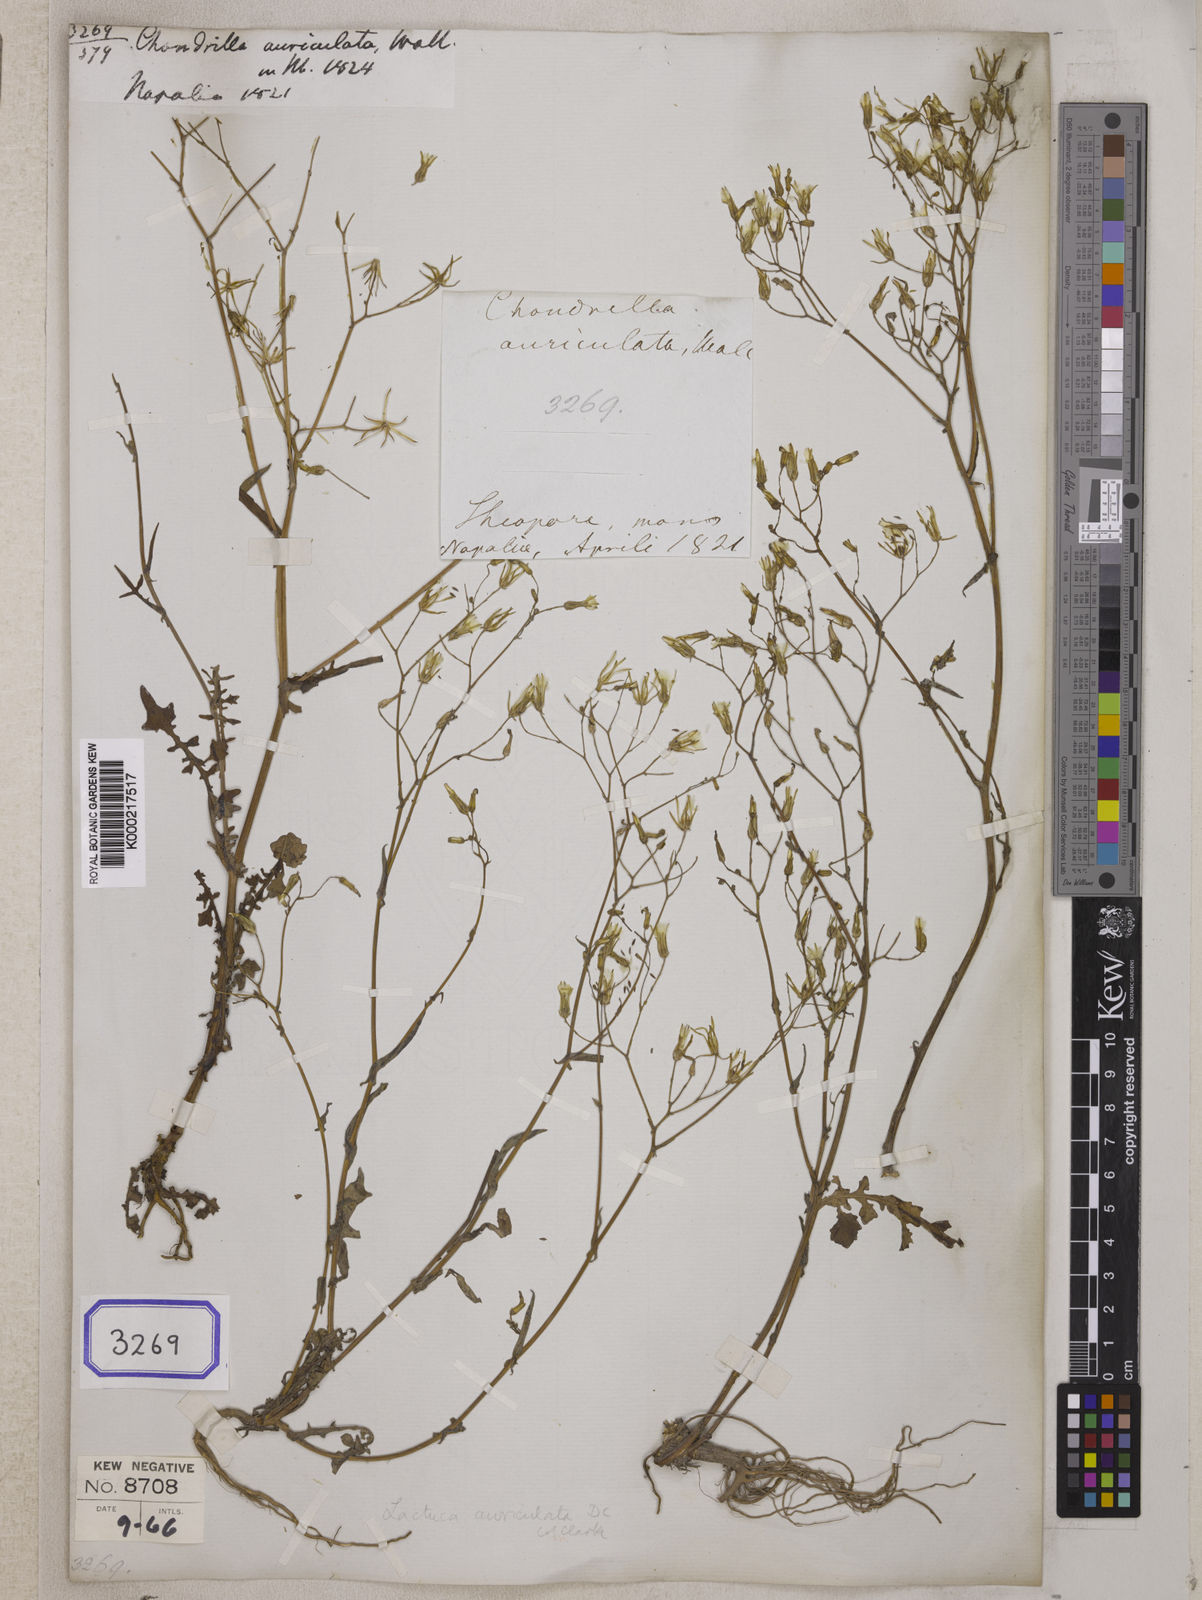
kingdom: Plantae
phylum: Tracheophyta
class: Magnoliopsida
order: Asterales
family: Asteraceae
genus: Lactuca
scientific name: Lactuca dissecta
